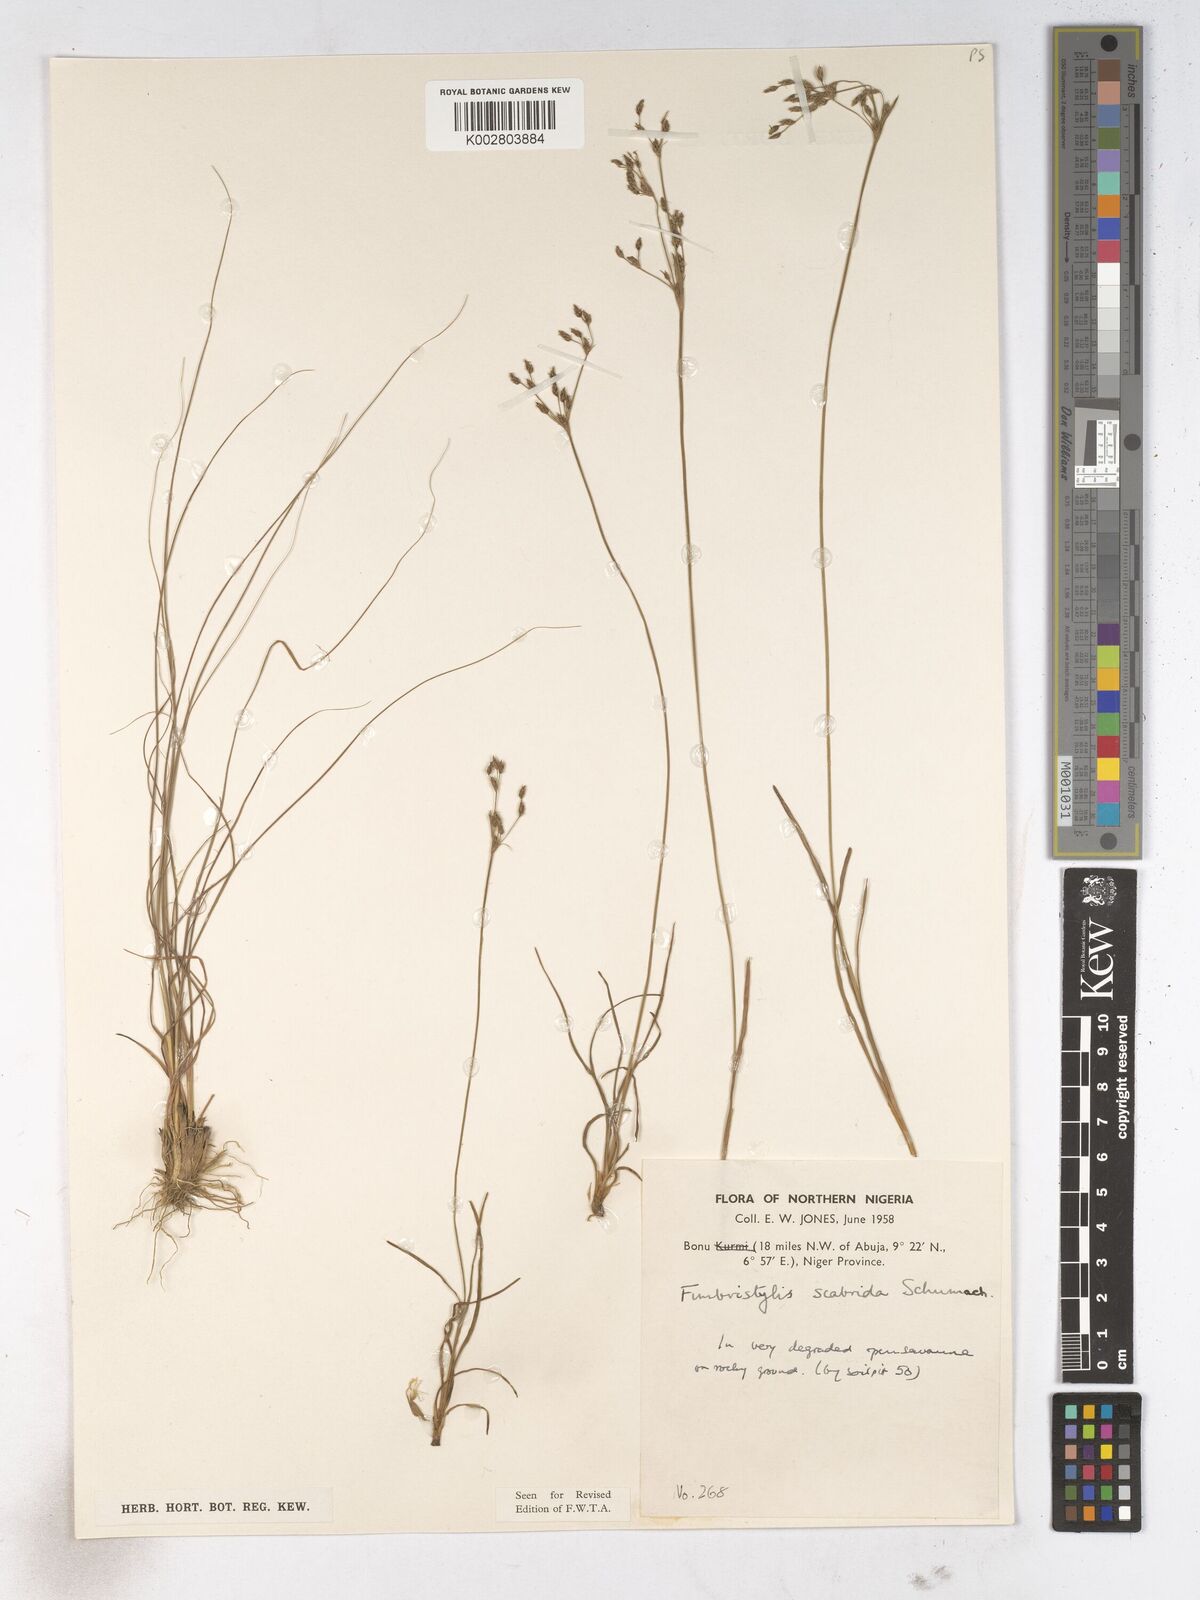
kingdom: Plantae
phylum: Tracheophyta
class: Liliopsida
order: Poales
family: Cyperaceae
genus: Fimbristylis
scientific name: Fimbristylis scabrida
